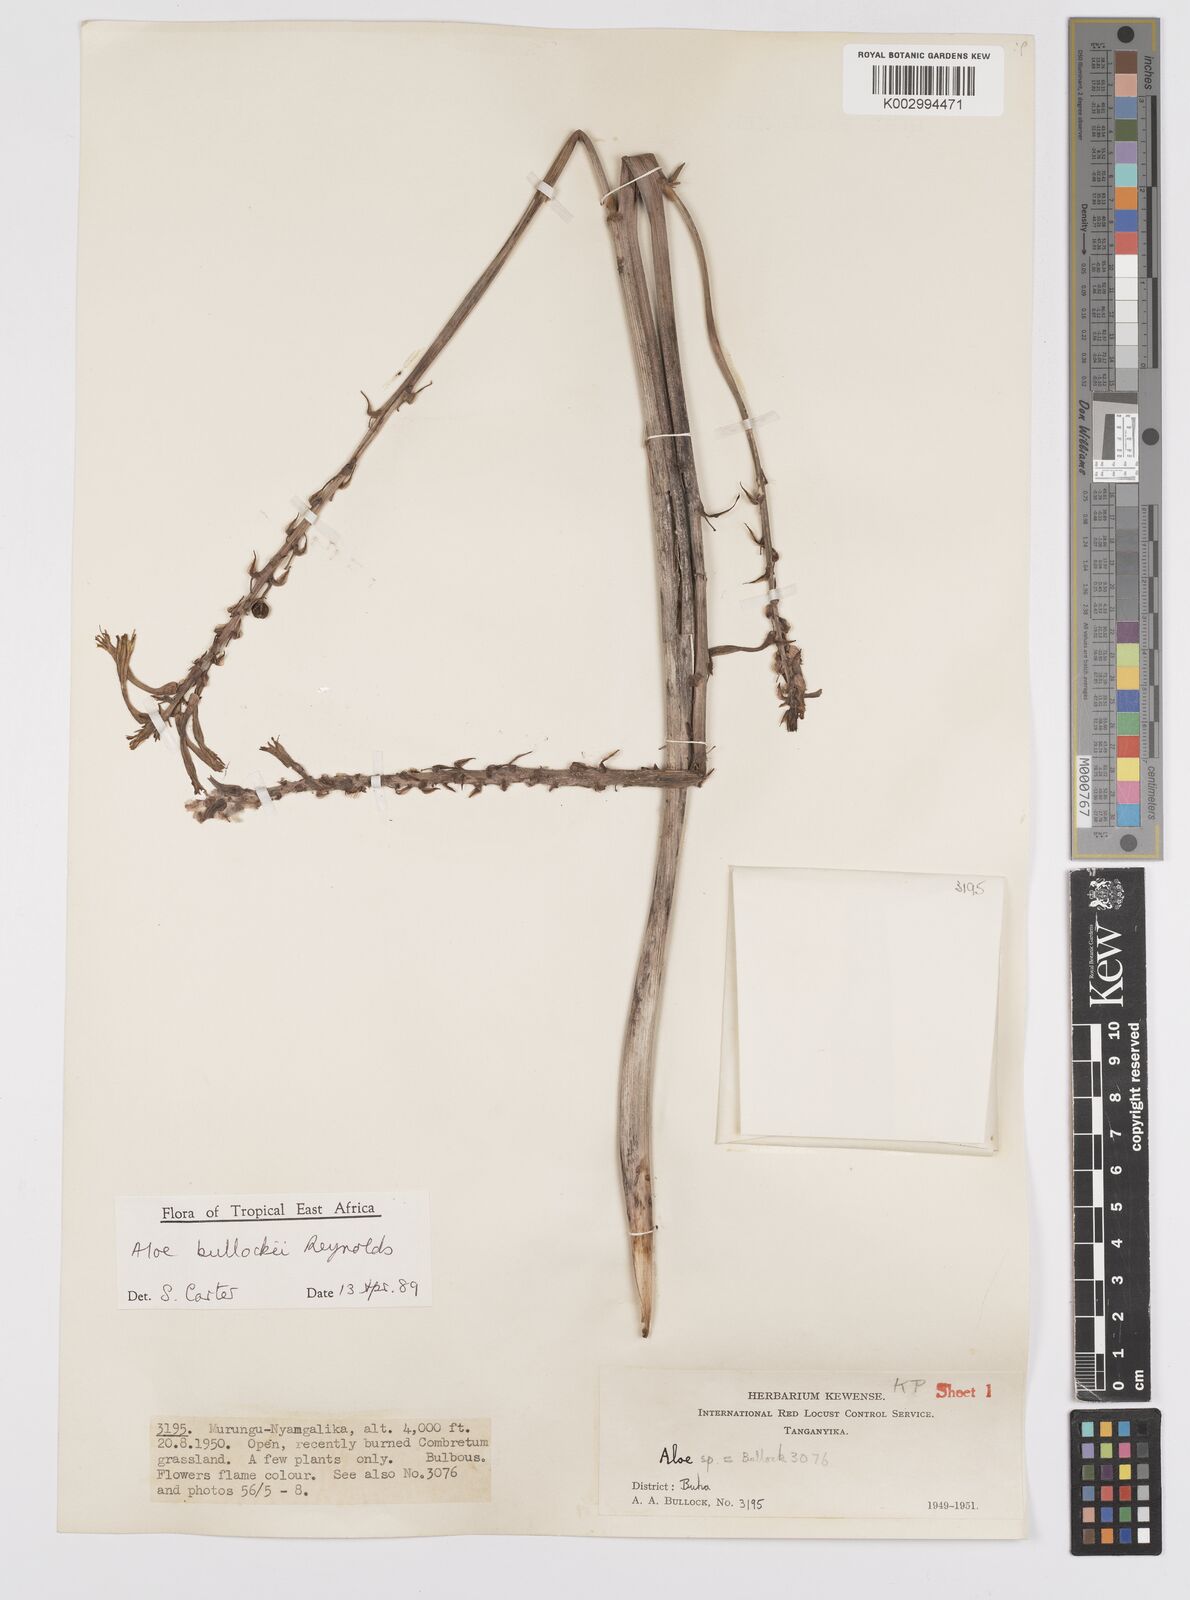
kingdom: Plantae
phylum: Tracheophyta
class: Liliopsida
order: Asparagales
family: Asphodelaceae
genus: Aloe
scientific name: Aloe bullockii
